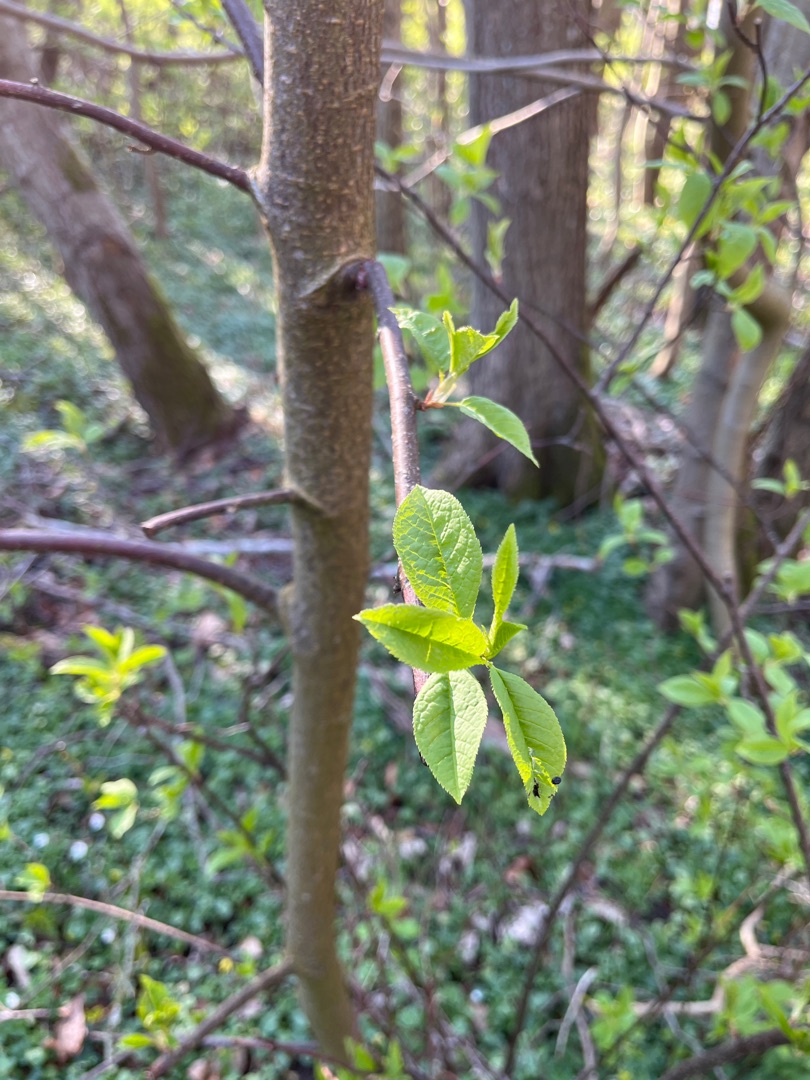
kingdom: Plantae
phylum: Tracheophyta
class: Magnoliopsida
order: Rosales
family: Rosaceae
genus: Prunus
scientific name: Prunus padus
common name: Almindelig hæg
